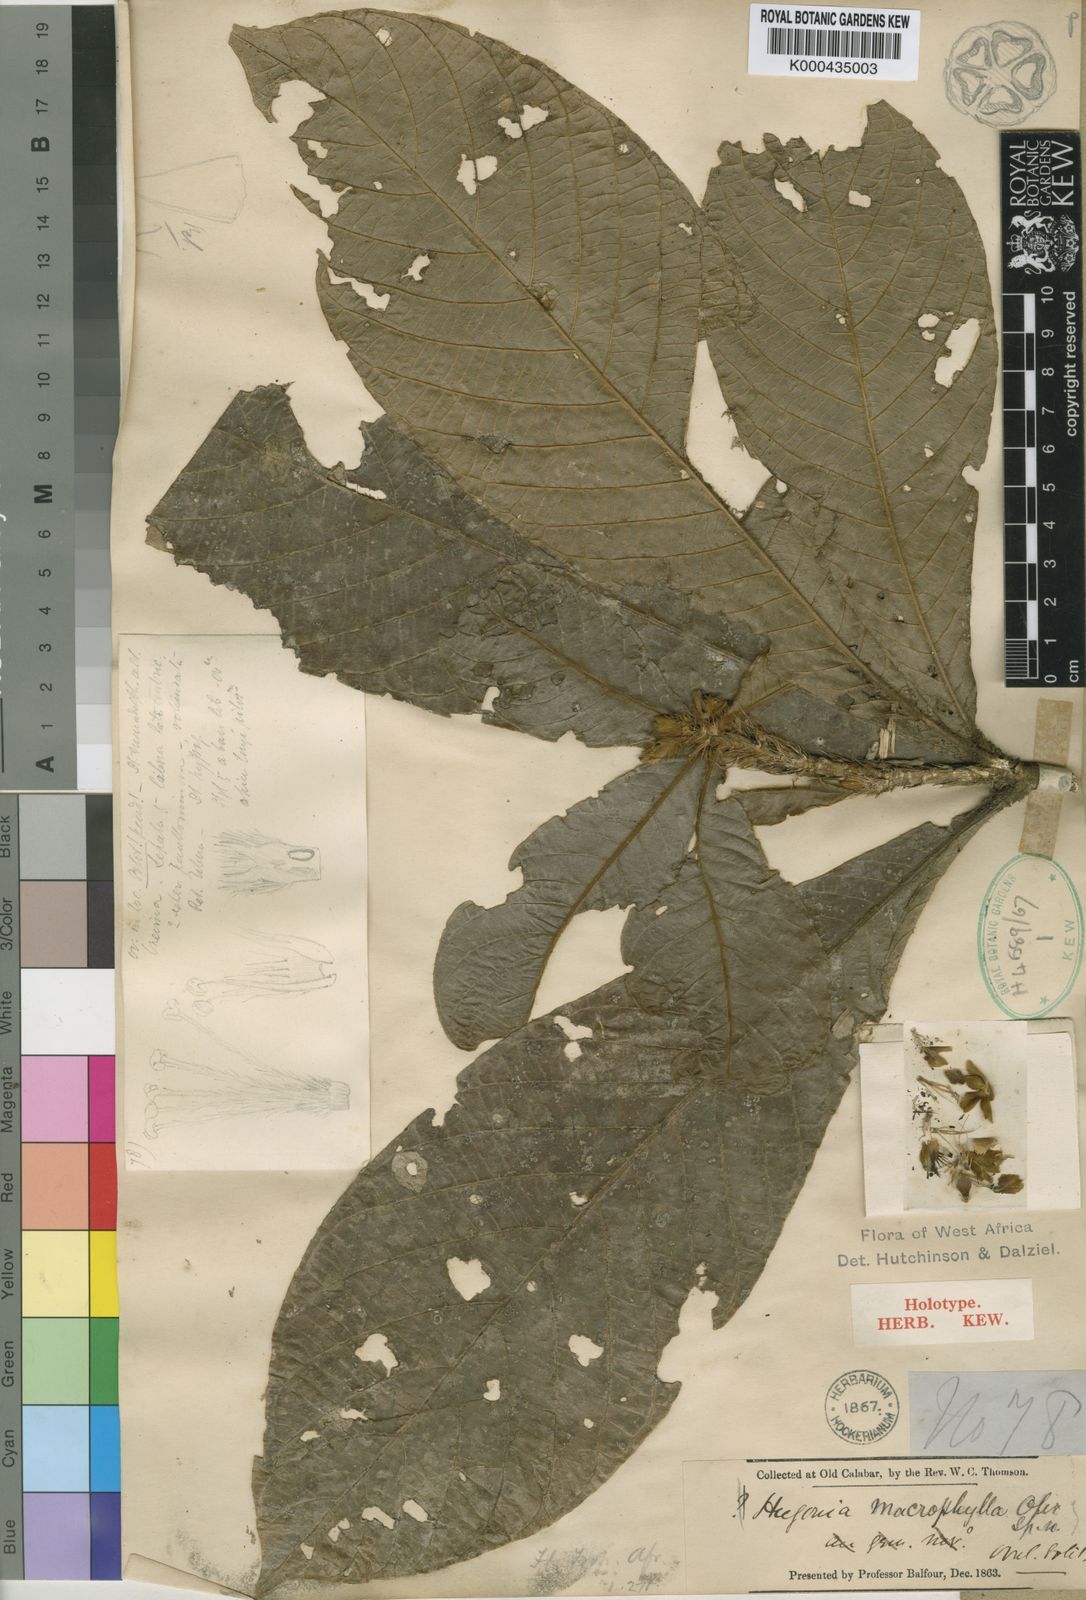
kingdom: Plantae
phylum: Tracheophyta
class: Magnoliopsida
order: Malpighiales
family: Linaceae
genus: Hugonia
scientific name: Hugonia macrophylla
